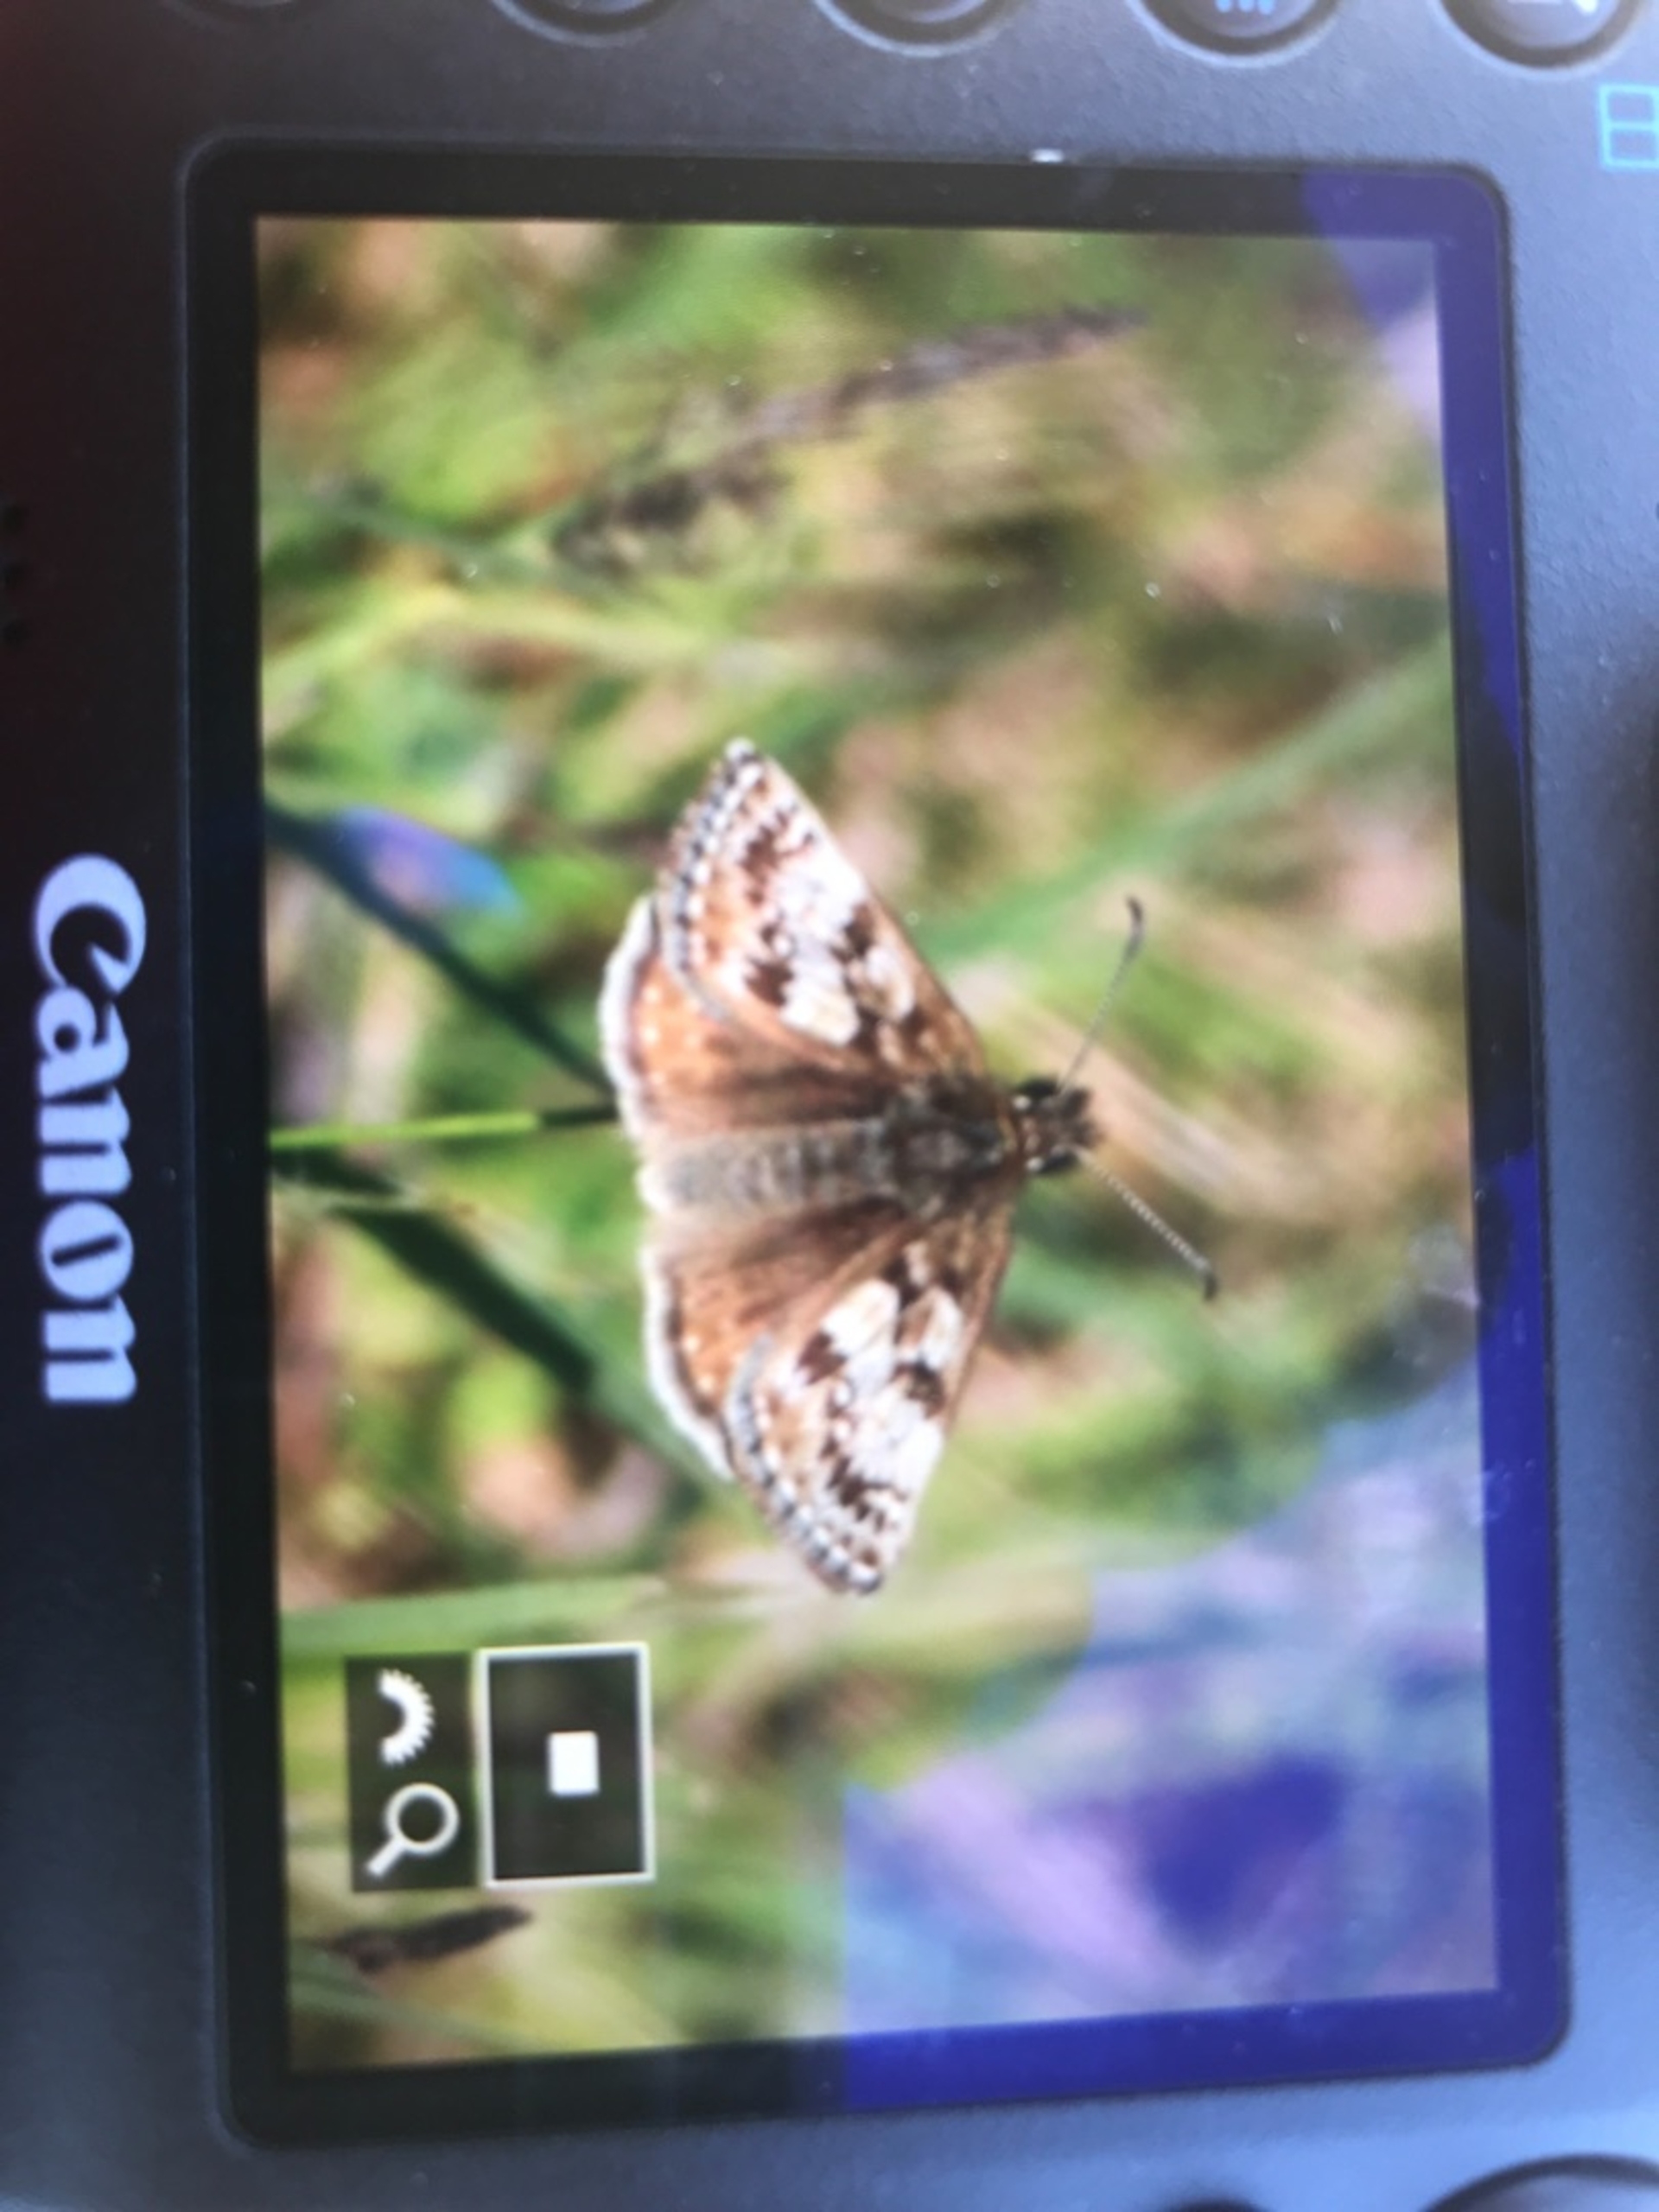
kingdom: Animalia
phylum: Arthropoda
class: Insecta
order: Lepidoptera
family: Hesperiidae
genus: Erynnis
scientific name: Erynnis tages
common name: Gråbåndet bredpande
